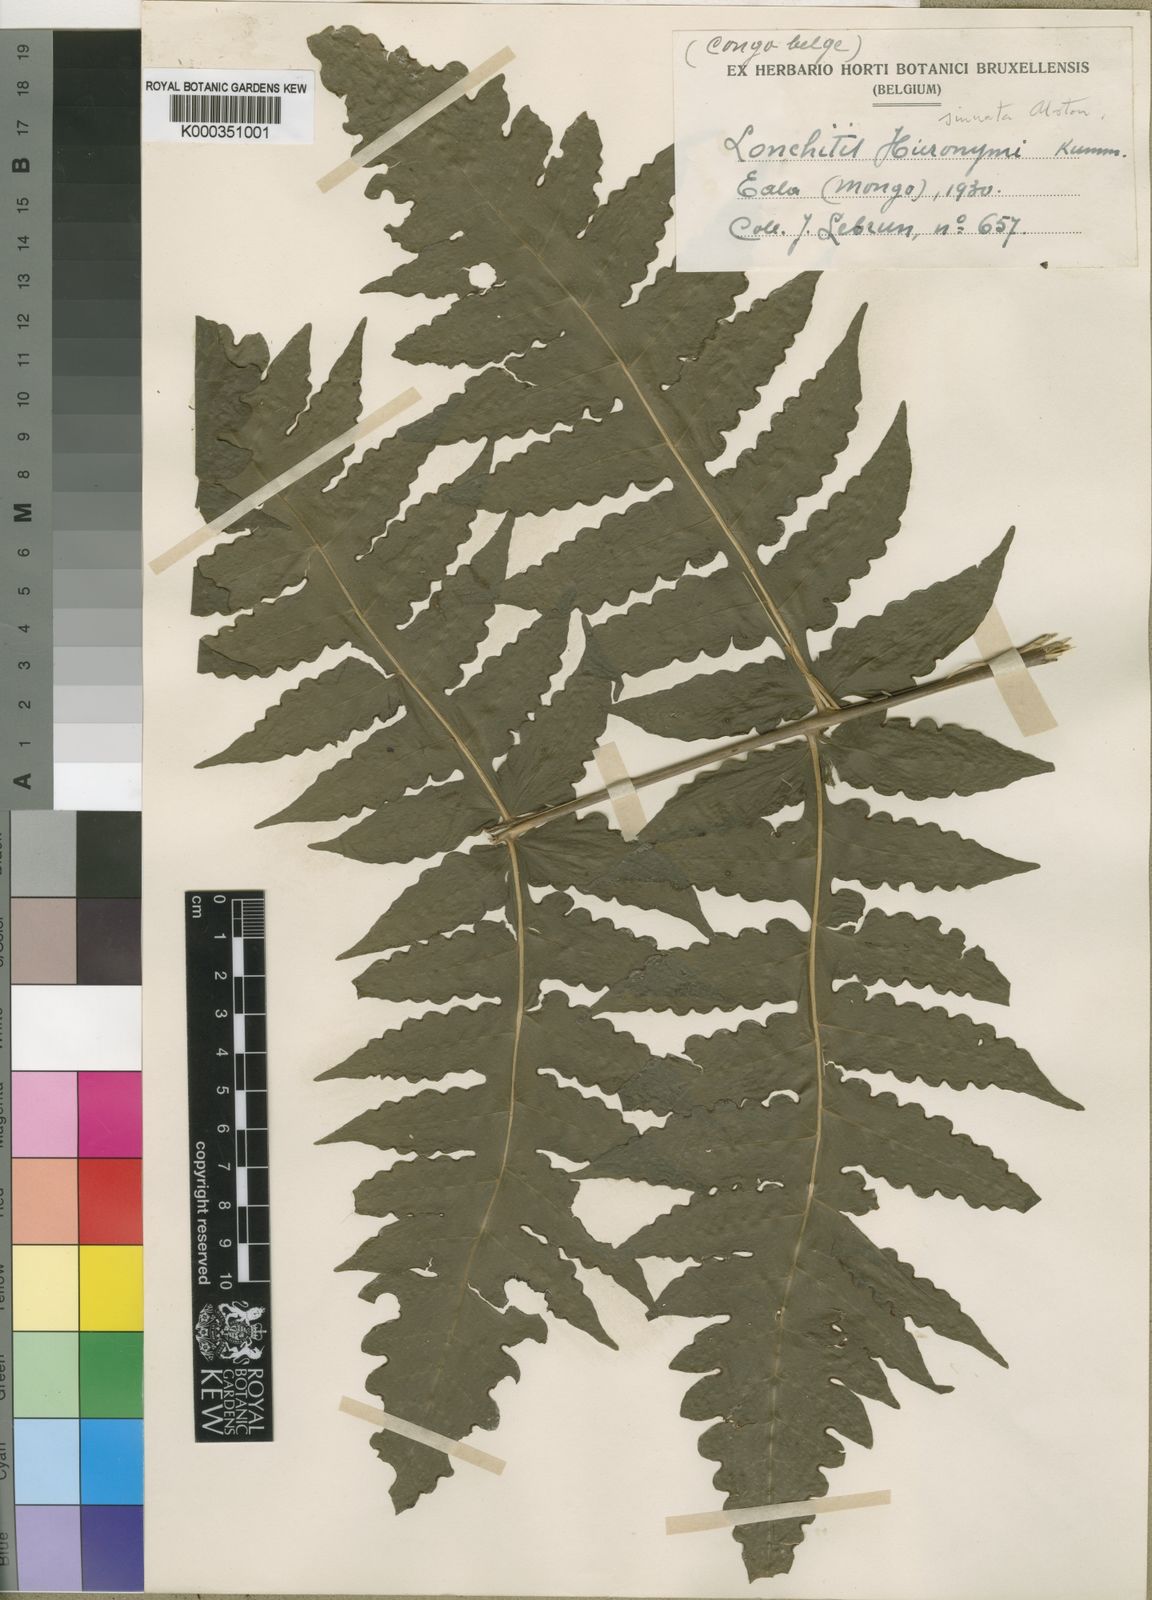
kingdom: Plantae
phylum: Tracheophyta
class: Polypodiopsida
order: Polypodiales
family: Dennstaedtiaceae
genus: Blotiella
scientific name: Blotiella currorii
